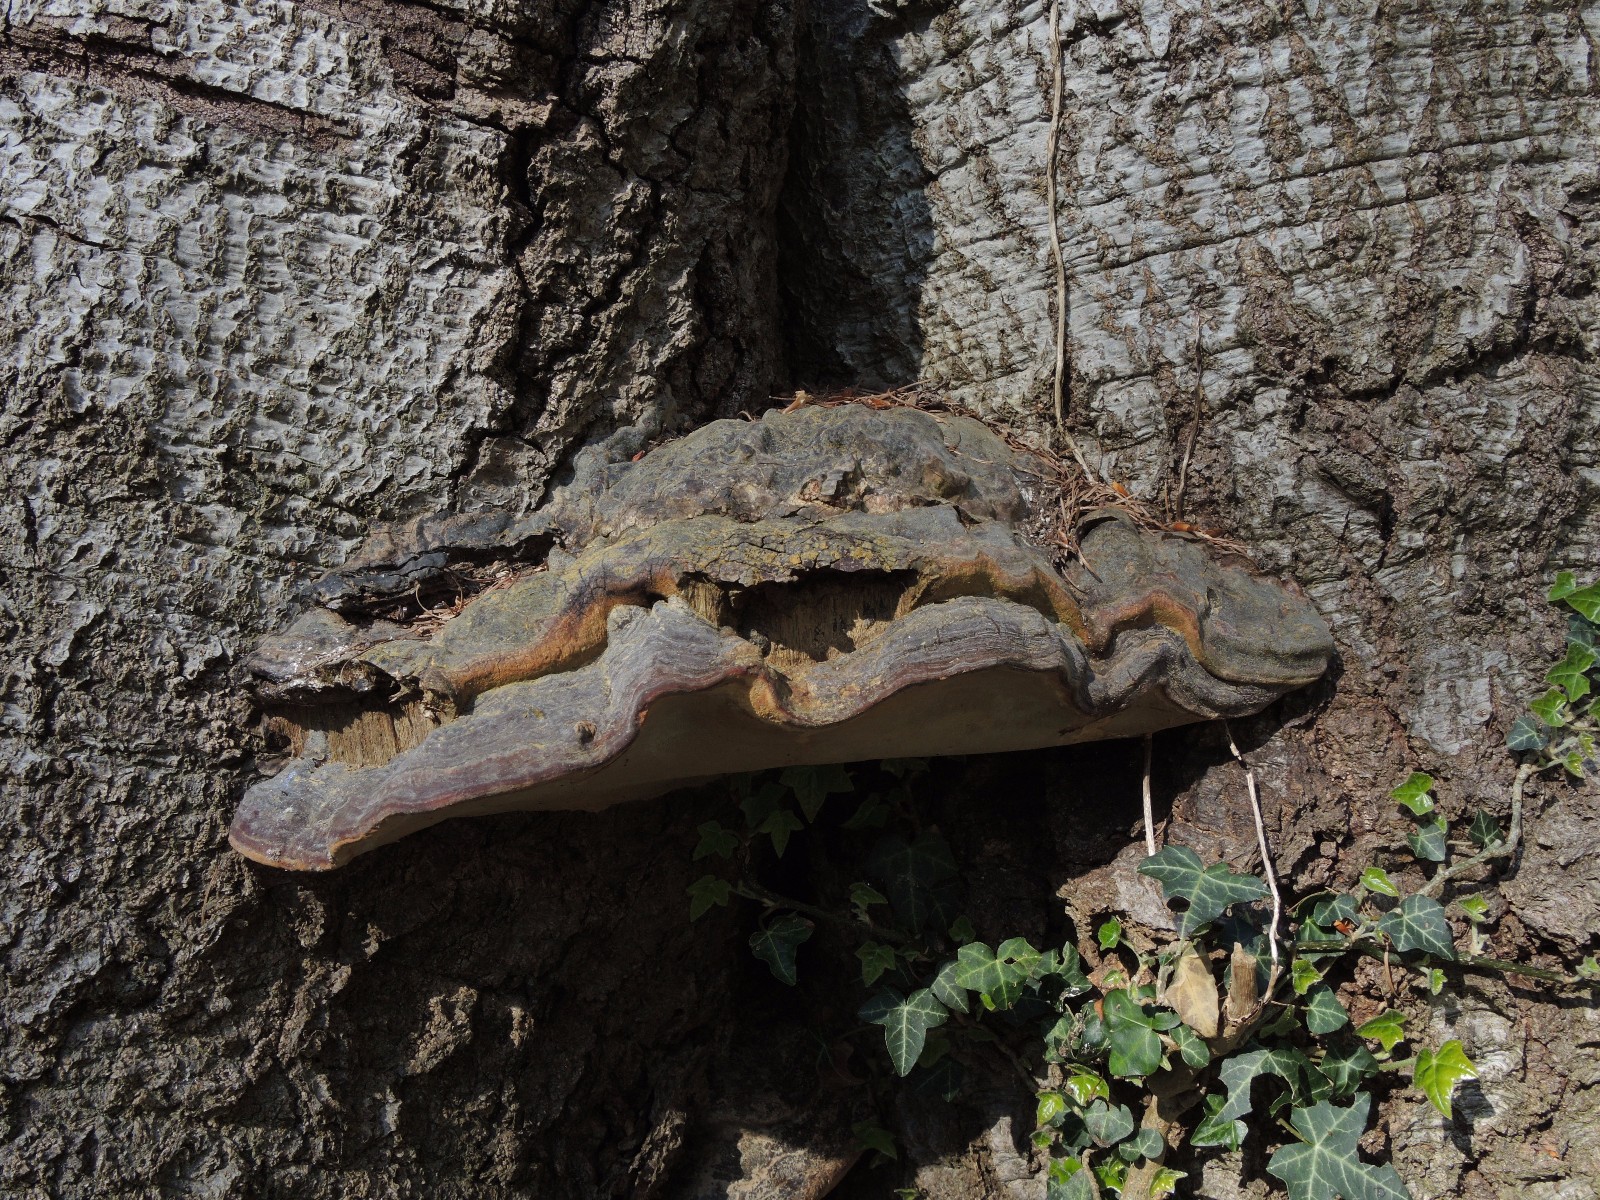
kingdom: Fungi
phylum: Basidiomycota
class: Agaricomycetes
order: Polyporales
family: Polyporaceae
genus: Ganoderma
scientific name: Ganoderma pfeifferi
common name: kobberrød lakporesvamp
